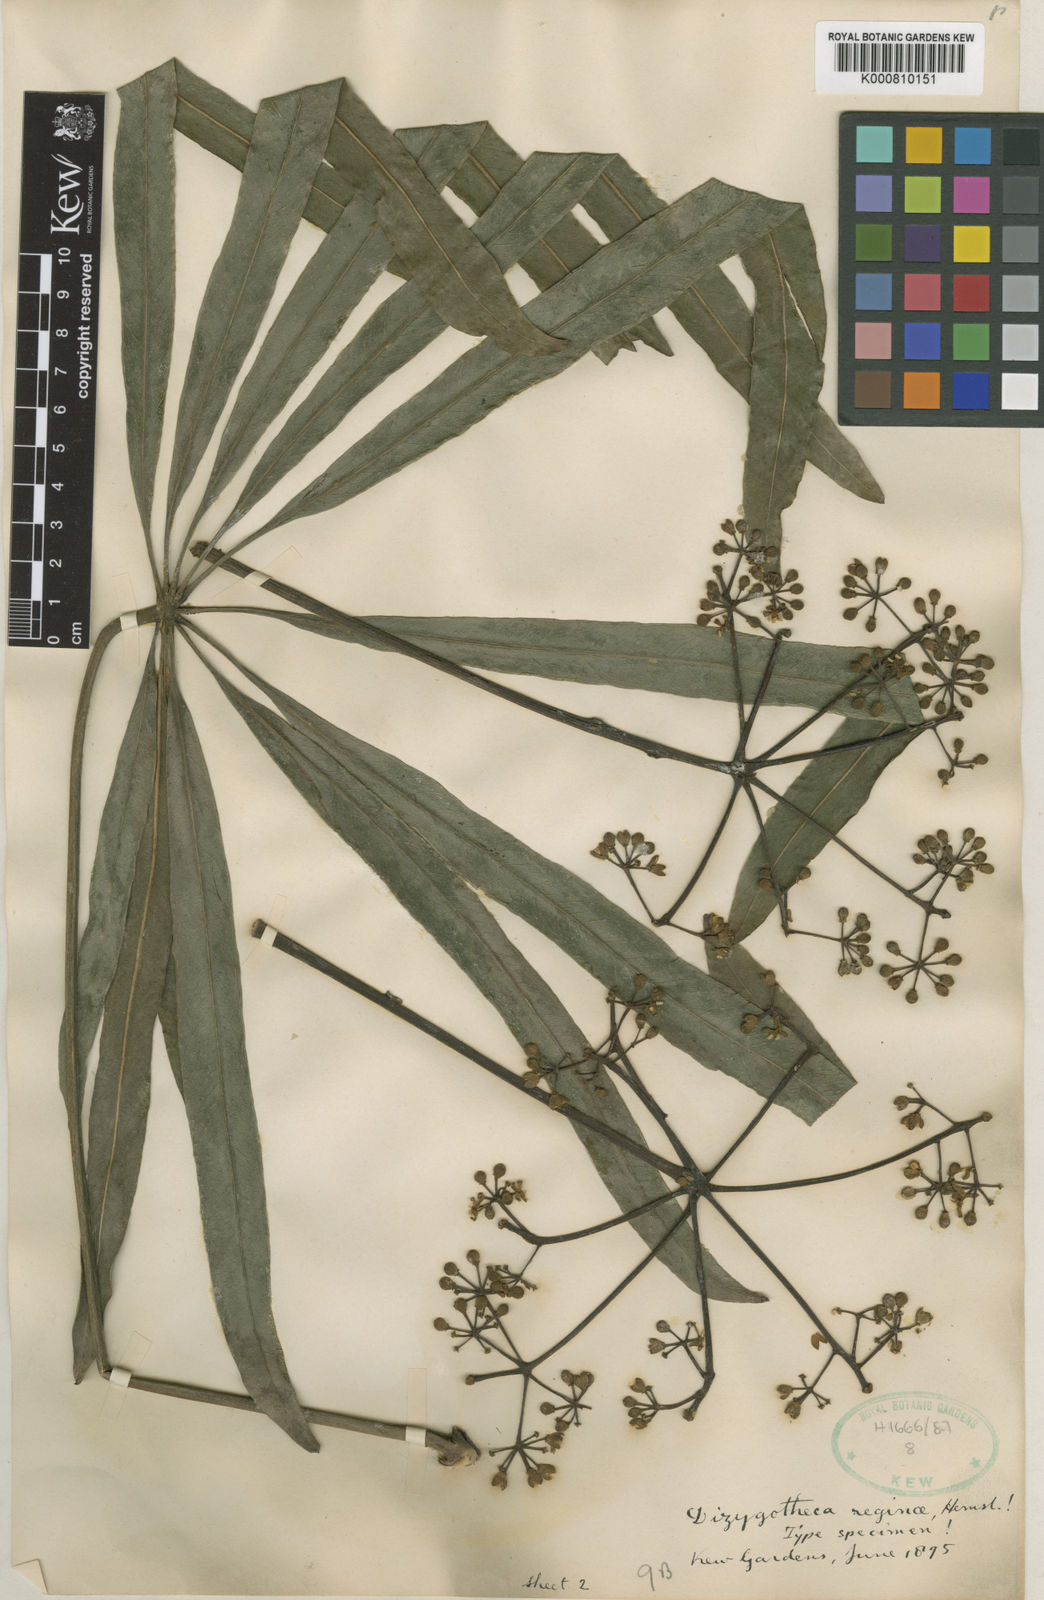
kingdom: Plantae
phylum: Tracheophyta
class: Magnoliopsida
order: Apiales
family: Araliaceae
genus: Plerandra
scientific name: Plerandra reginae
